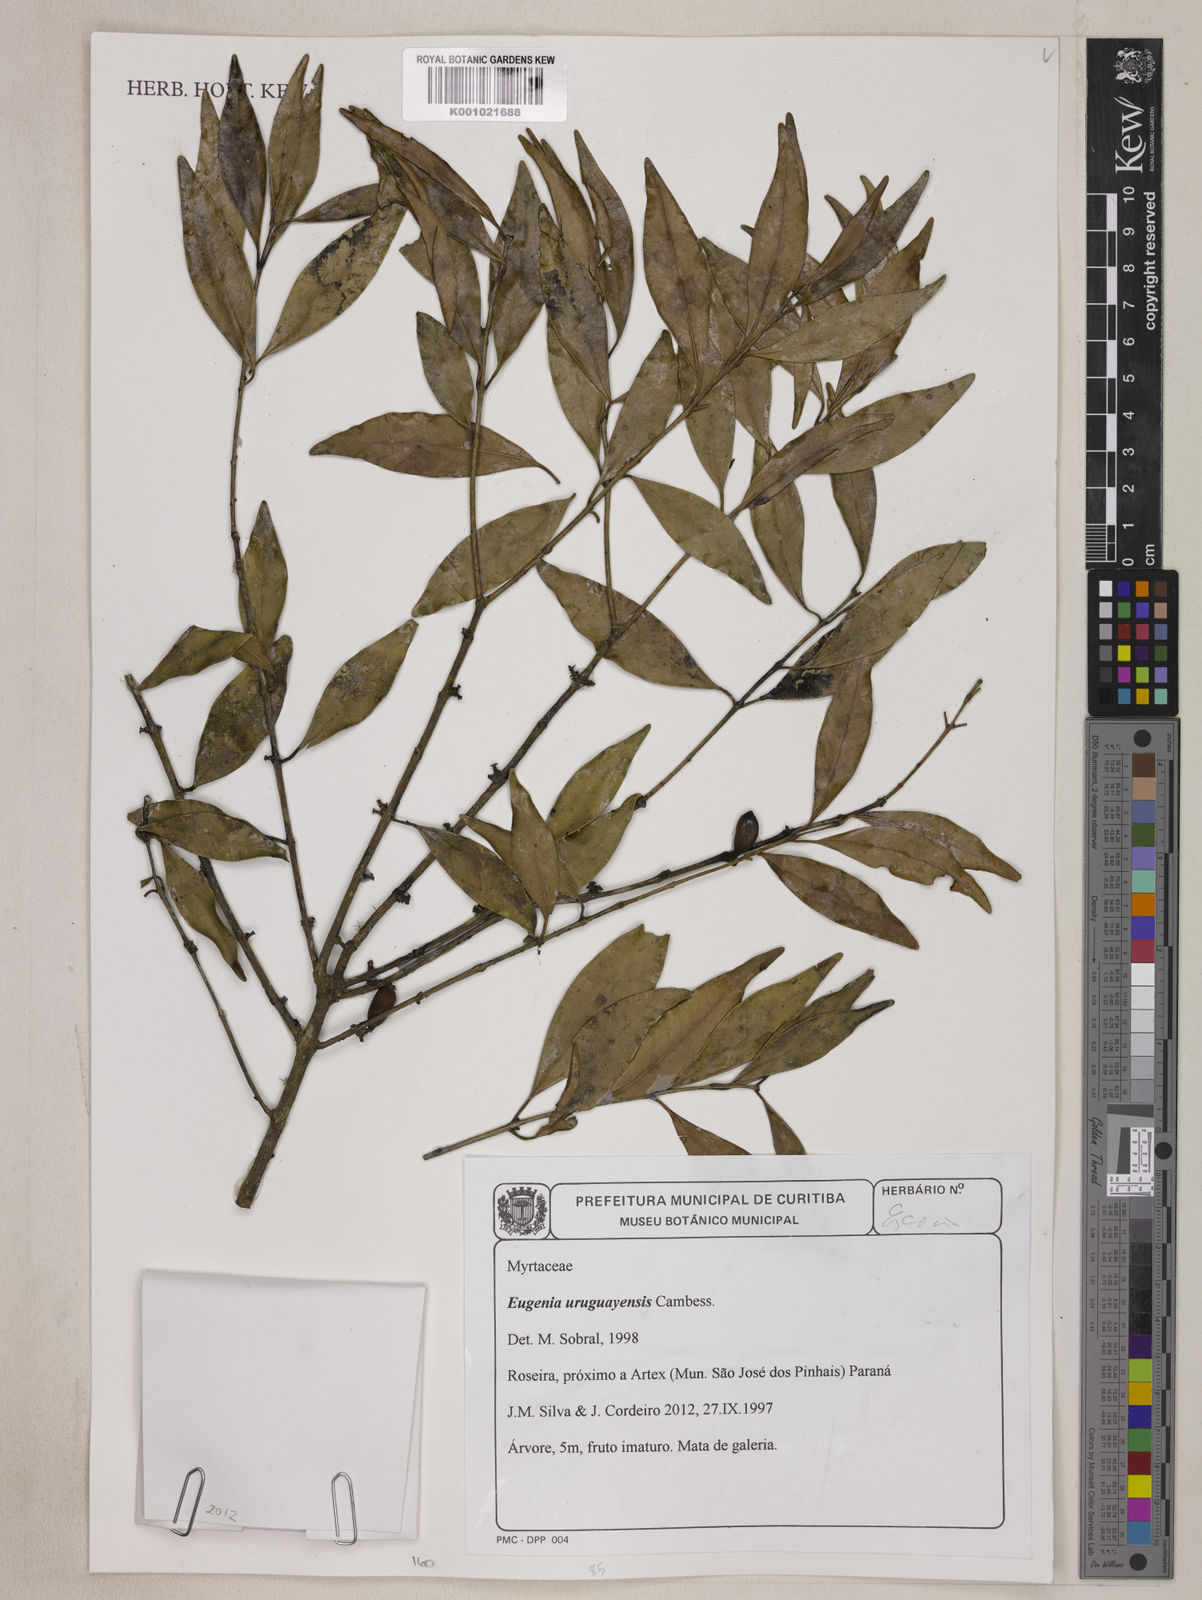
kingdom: Plantae
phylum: Tracheophyta
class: Magnoliopsida
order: Myrtales
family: Myrtaceae
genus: Eugenia
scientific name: Eugenia uruguayensis
